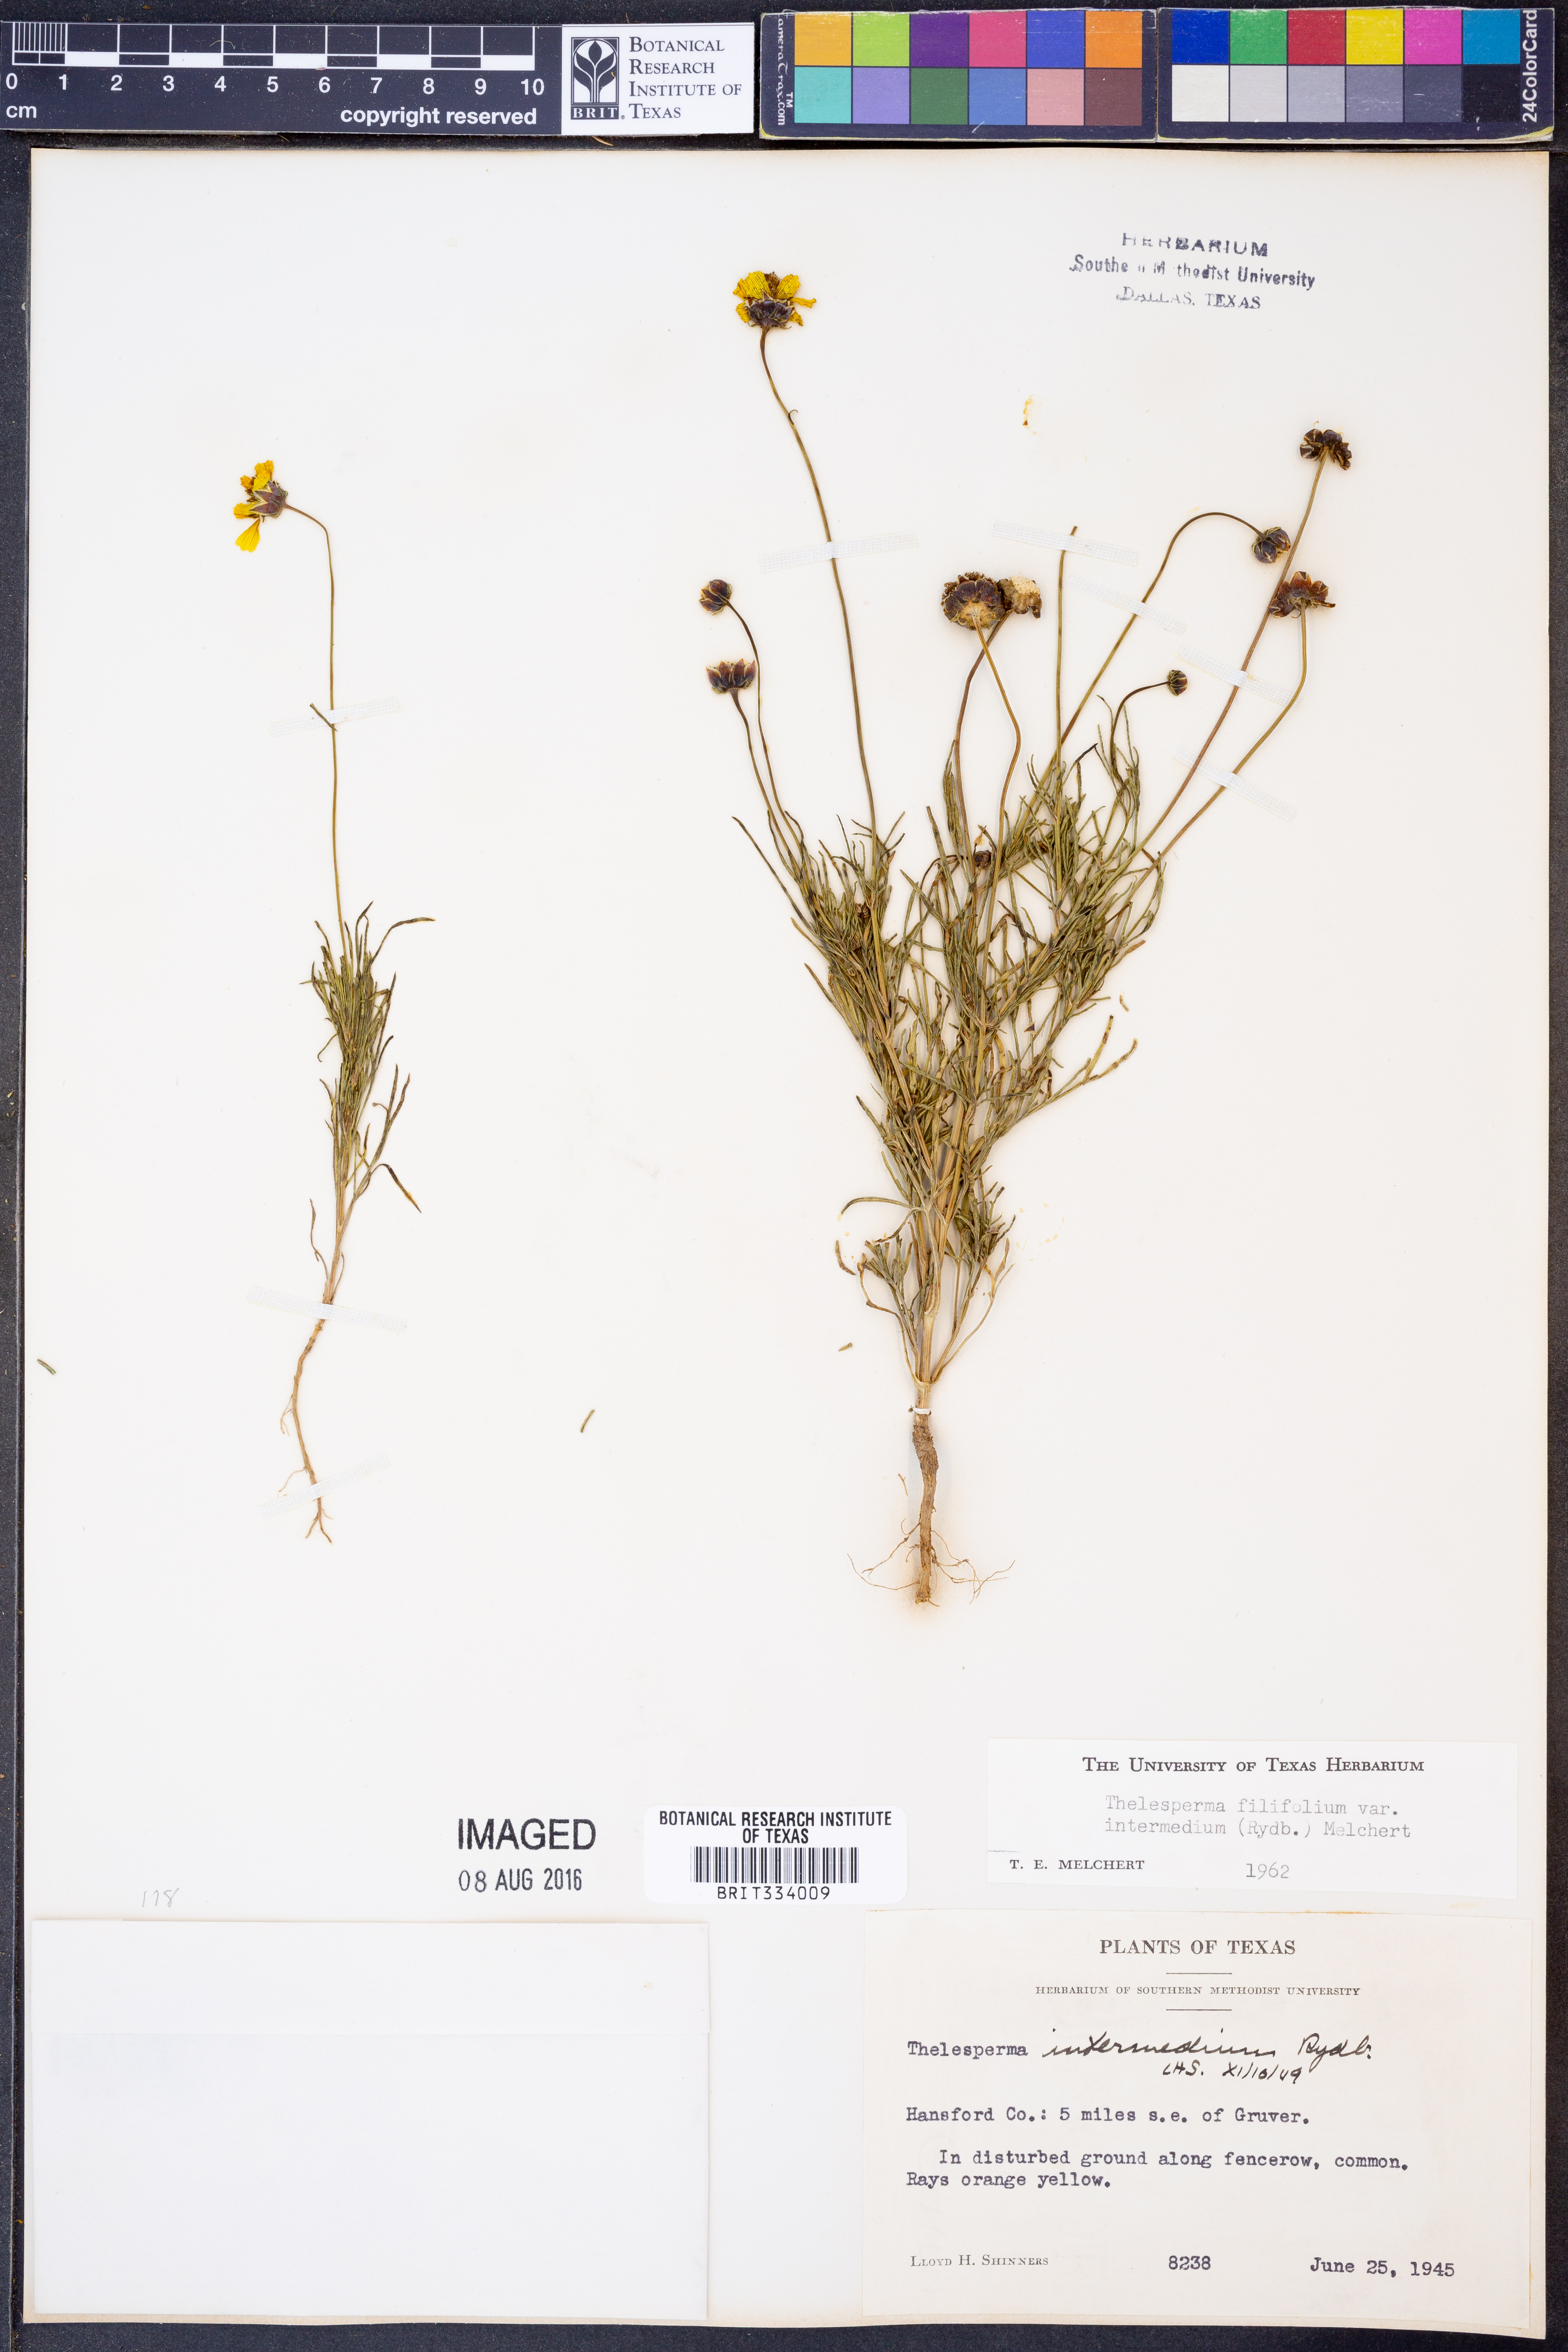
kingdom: Plantae
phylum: Tracheophyta
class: Magnoliopsida
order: Asterales
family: Asteraceae
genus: Thelesperma
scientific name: Thelesperma filifolium
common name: Stiff greenthread
